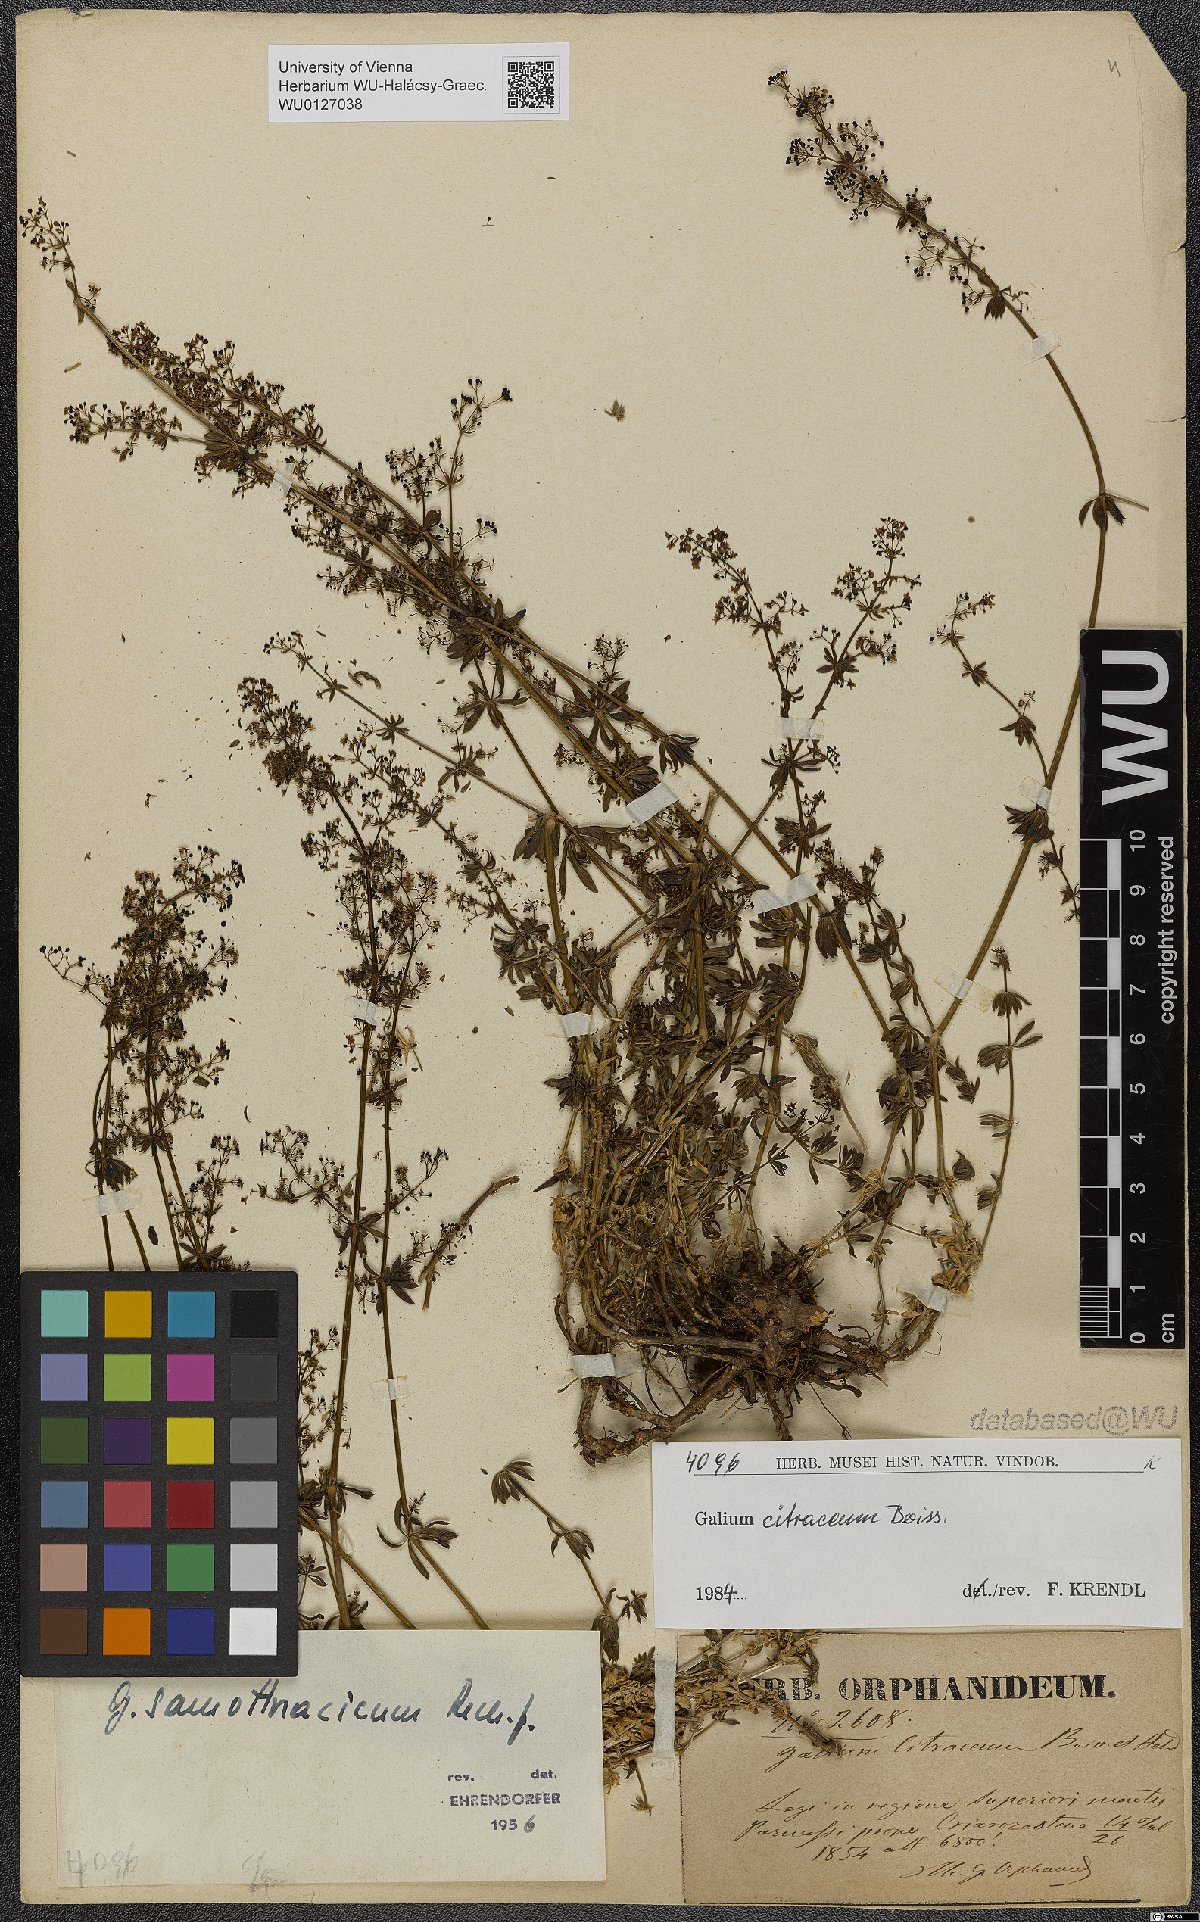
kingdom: Plantae
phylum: Tracheophyta
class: Magnoliopsida
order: Gentianales
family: Rubiaceae
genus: Galium
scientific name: Galium citraceum
